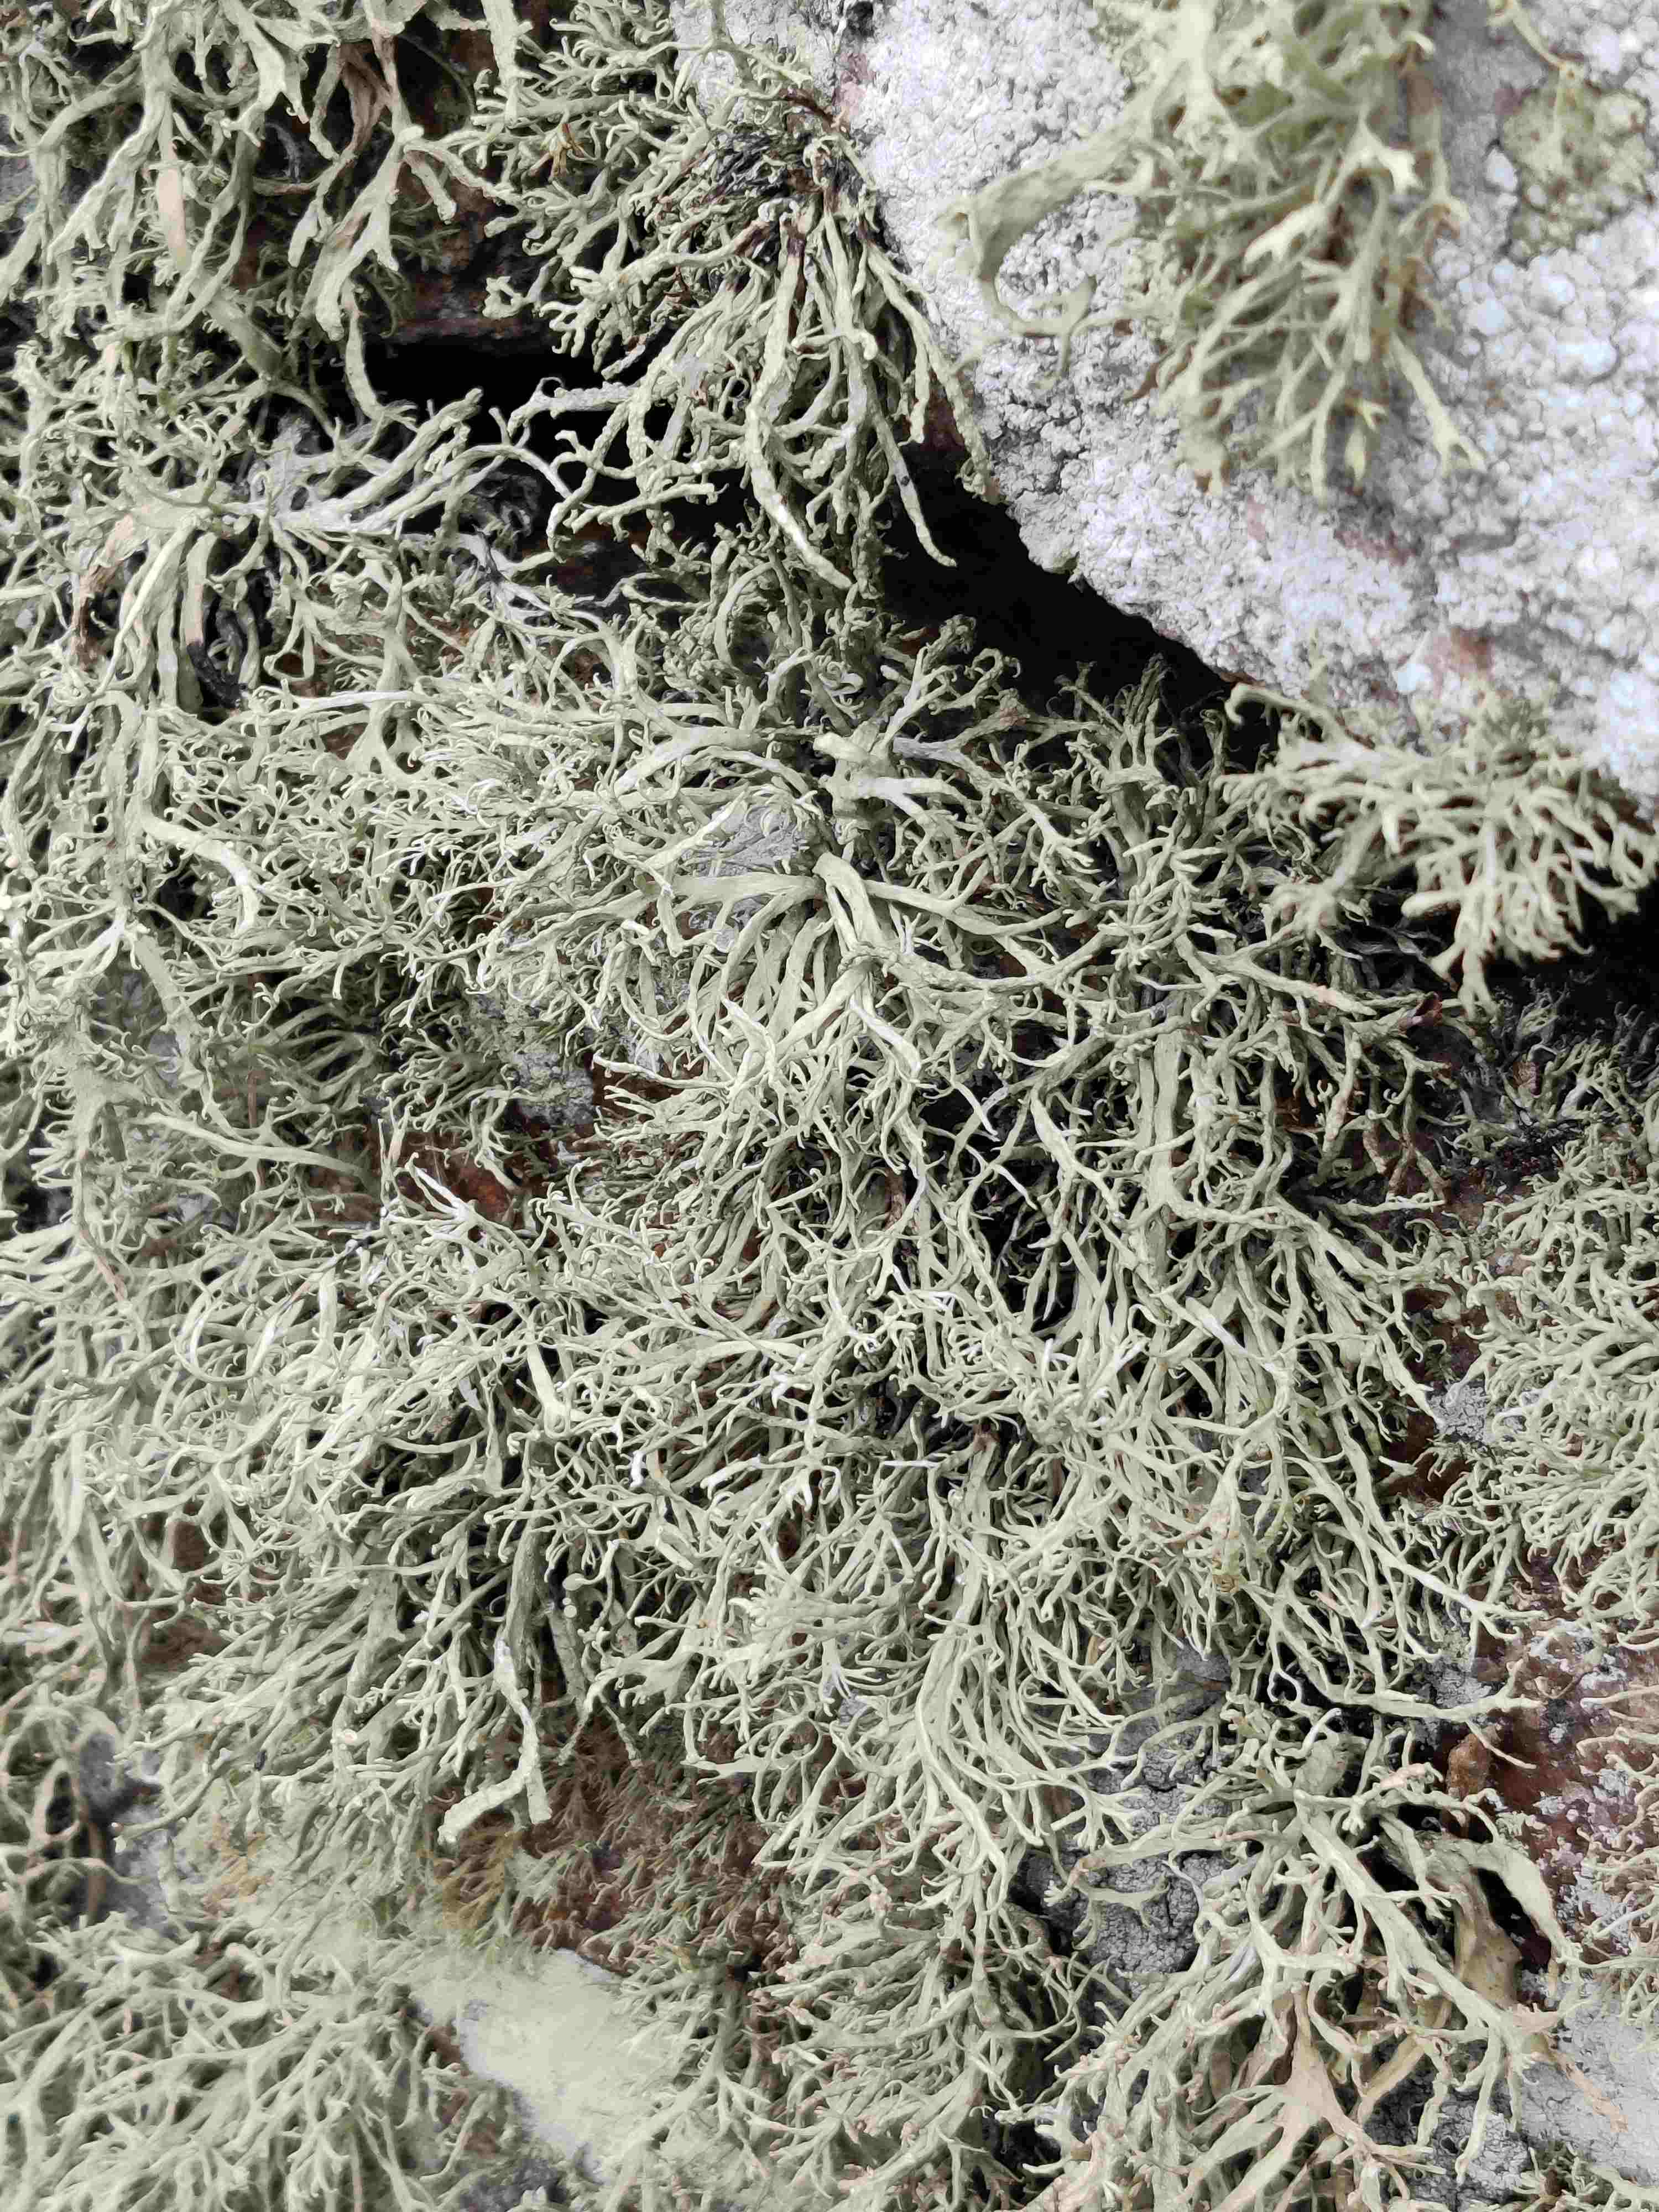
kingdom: Fungi
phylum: Ascomycota
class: Lecanoromycetes
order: Lecanorales
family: Ramalinaceae
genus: Ramalina
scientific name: Ramalina siliquosa
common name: klippe-grenlav
